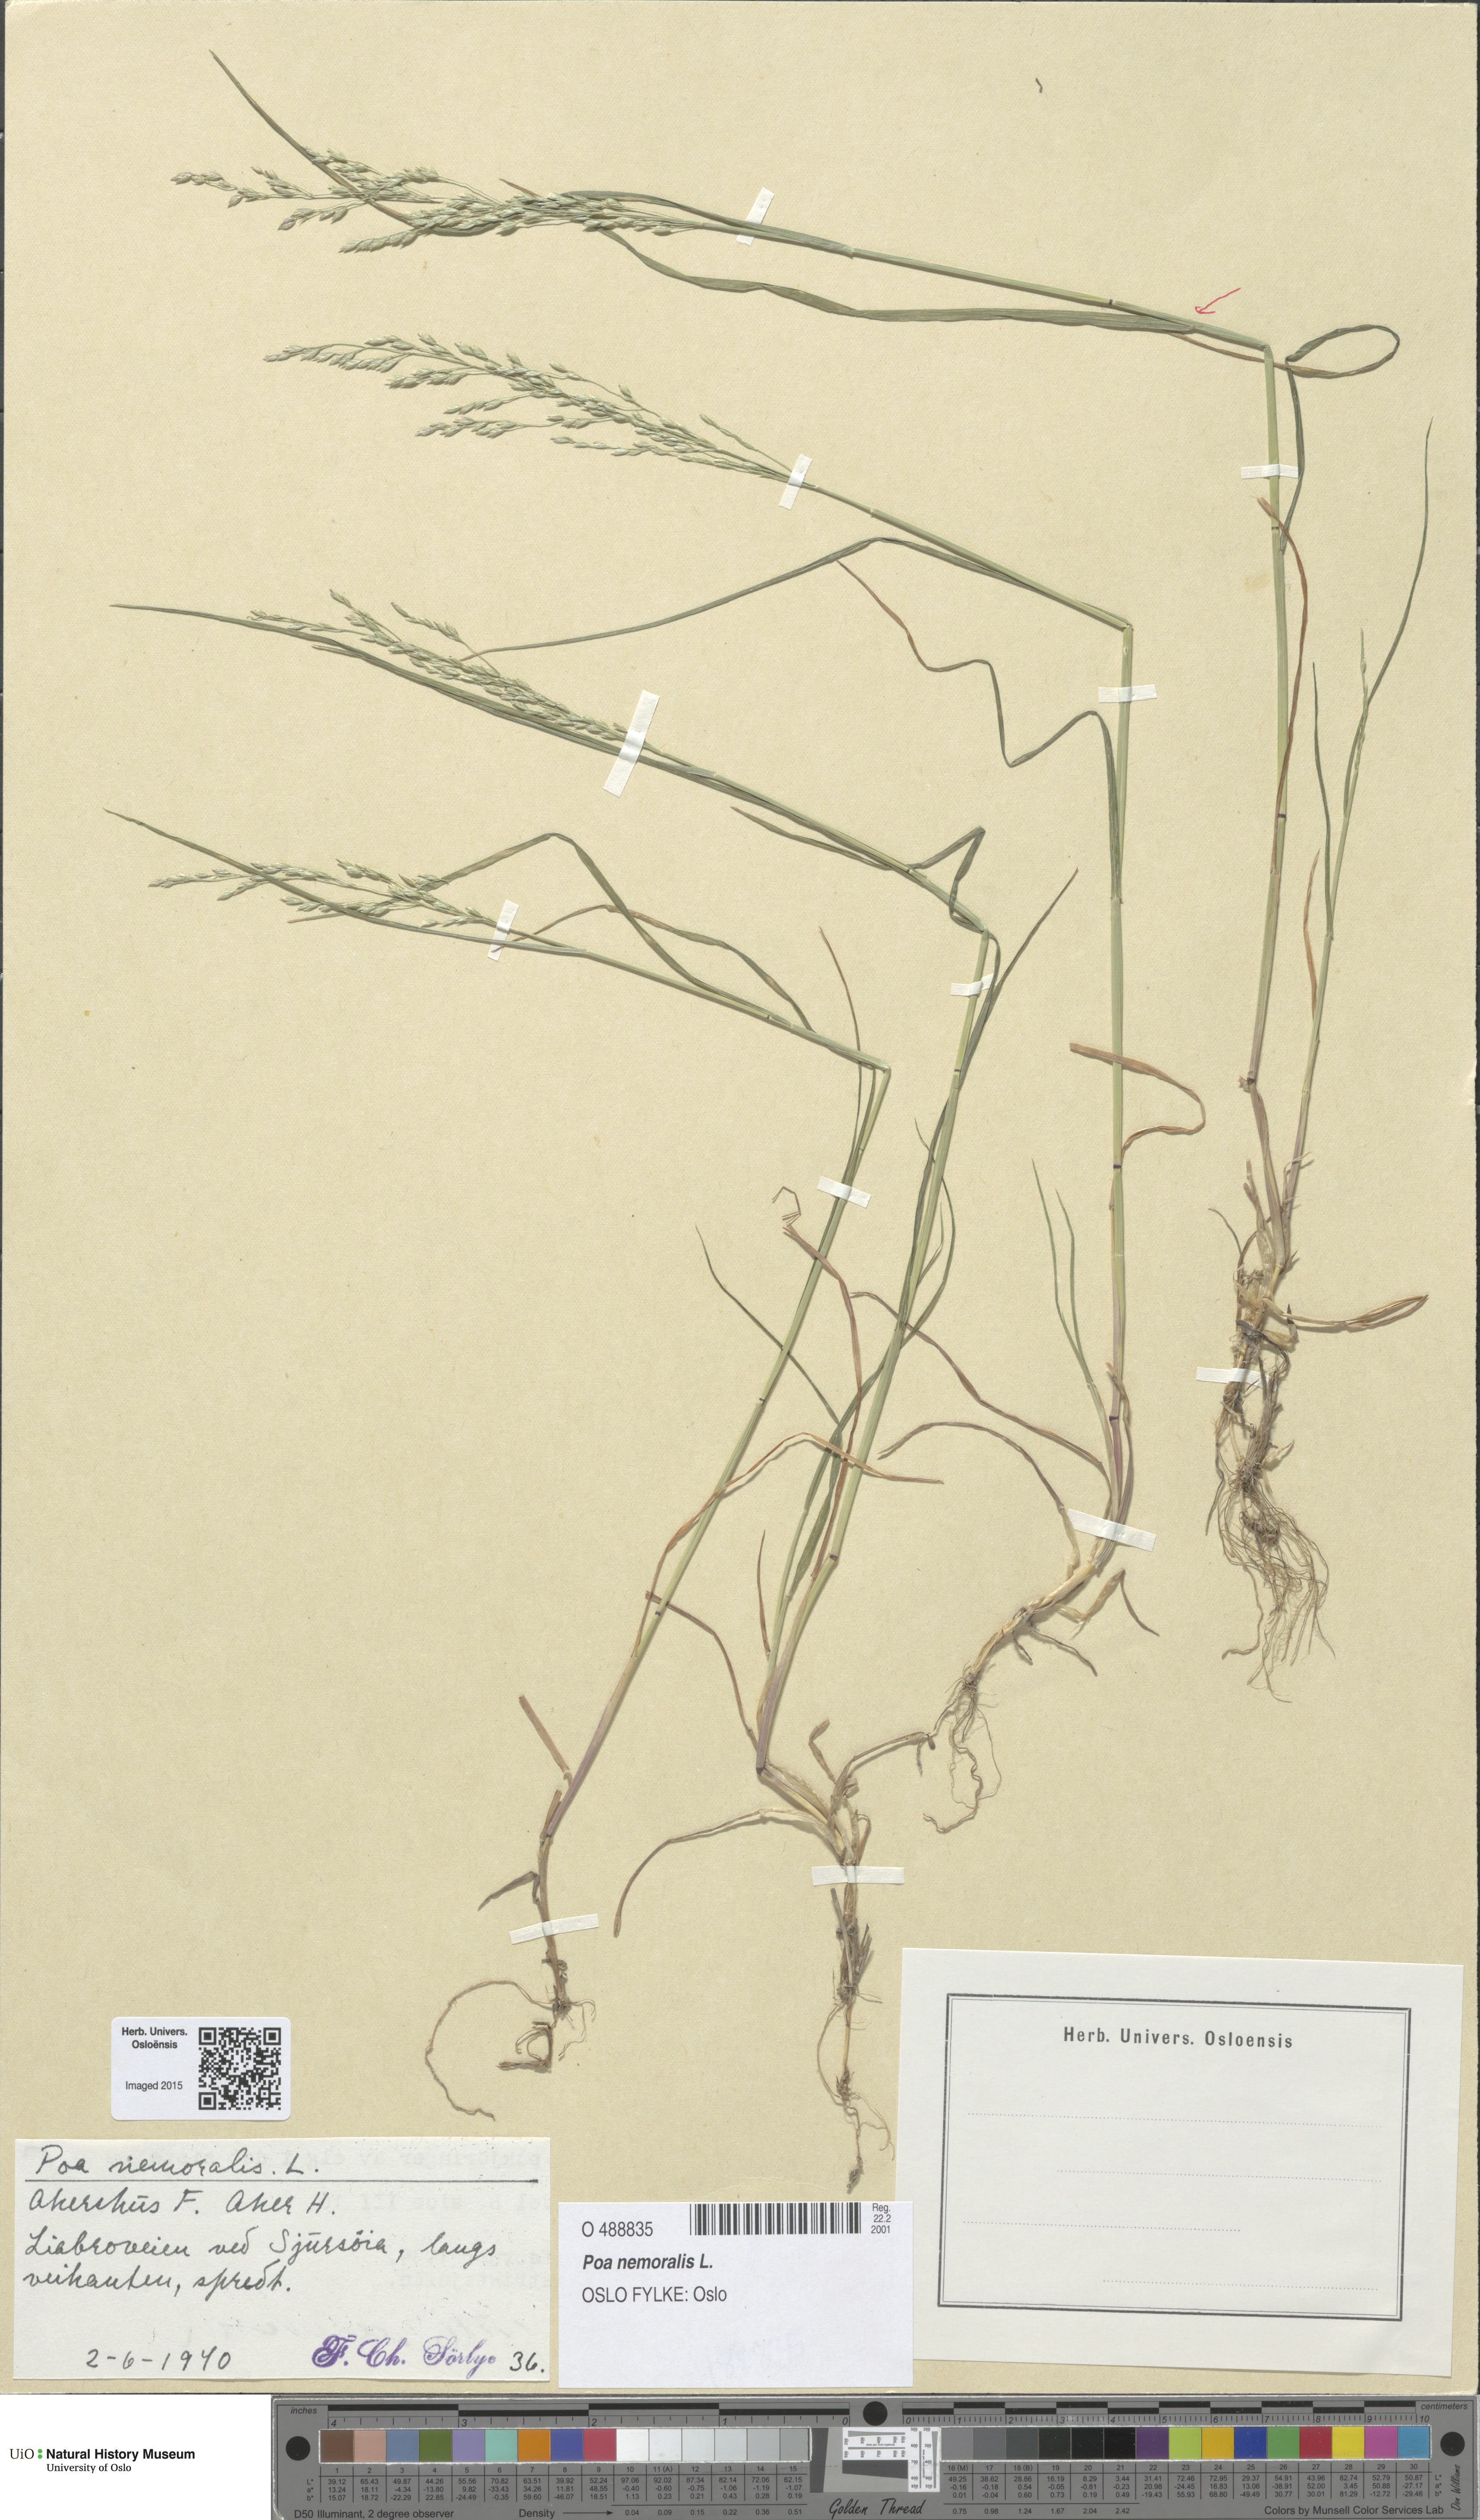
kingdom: Plantae
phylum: Tracheophyta
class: Liliopsida
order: Poales
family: Poaceae
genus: Poa
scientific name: Poa nemoralis
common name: Wood bluegrass
